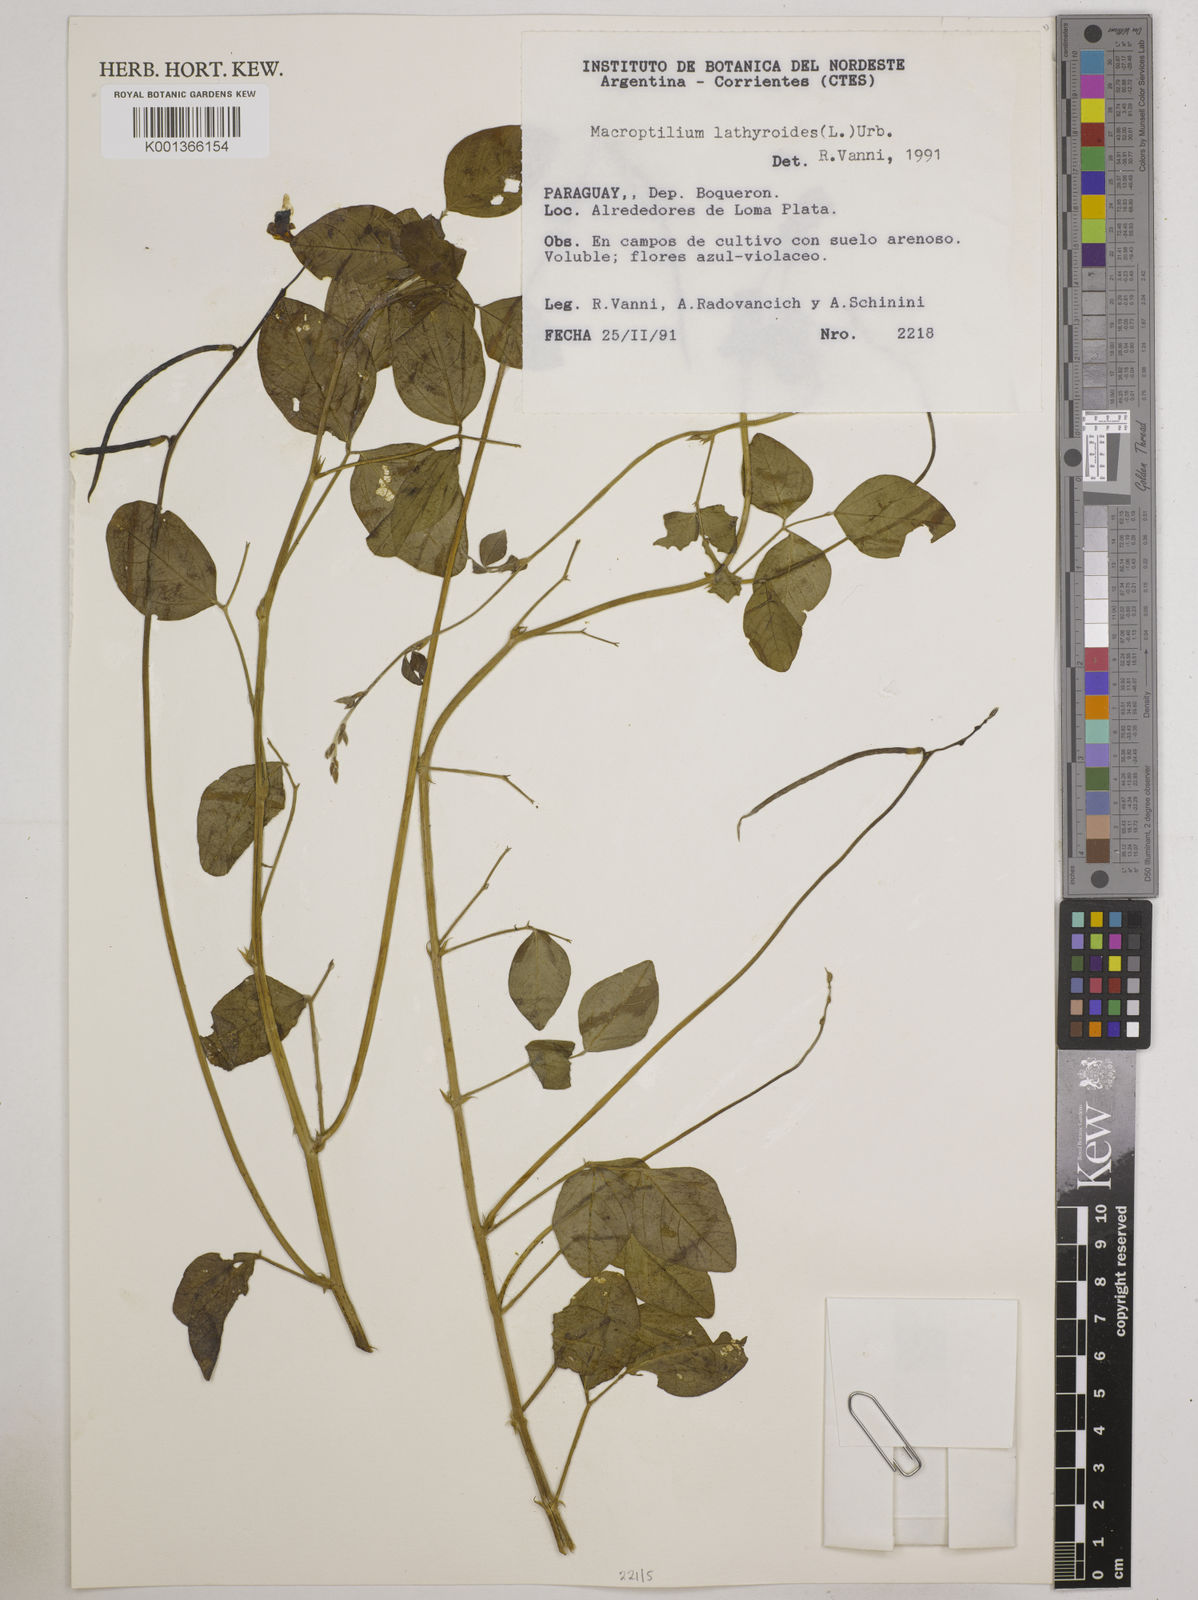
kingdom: Plantae
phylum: Tracheophyta
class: Magnoliopsida
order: Fabales
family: Fabaceae
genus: Macroptilium
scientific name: Macroptilium
